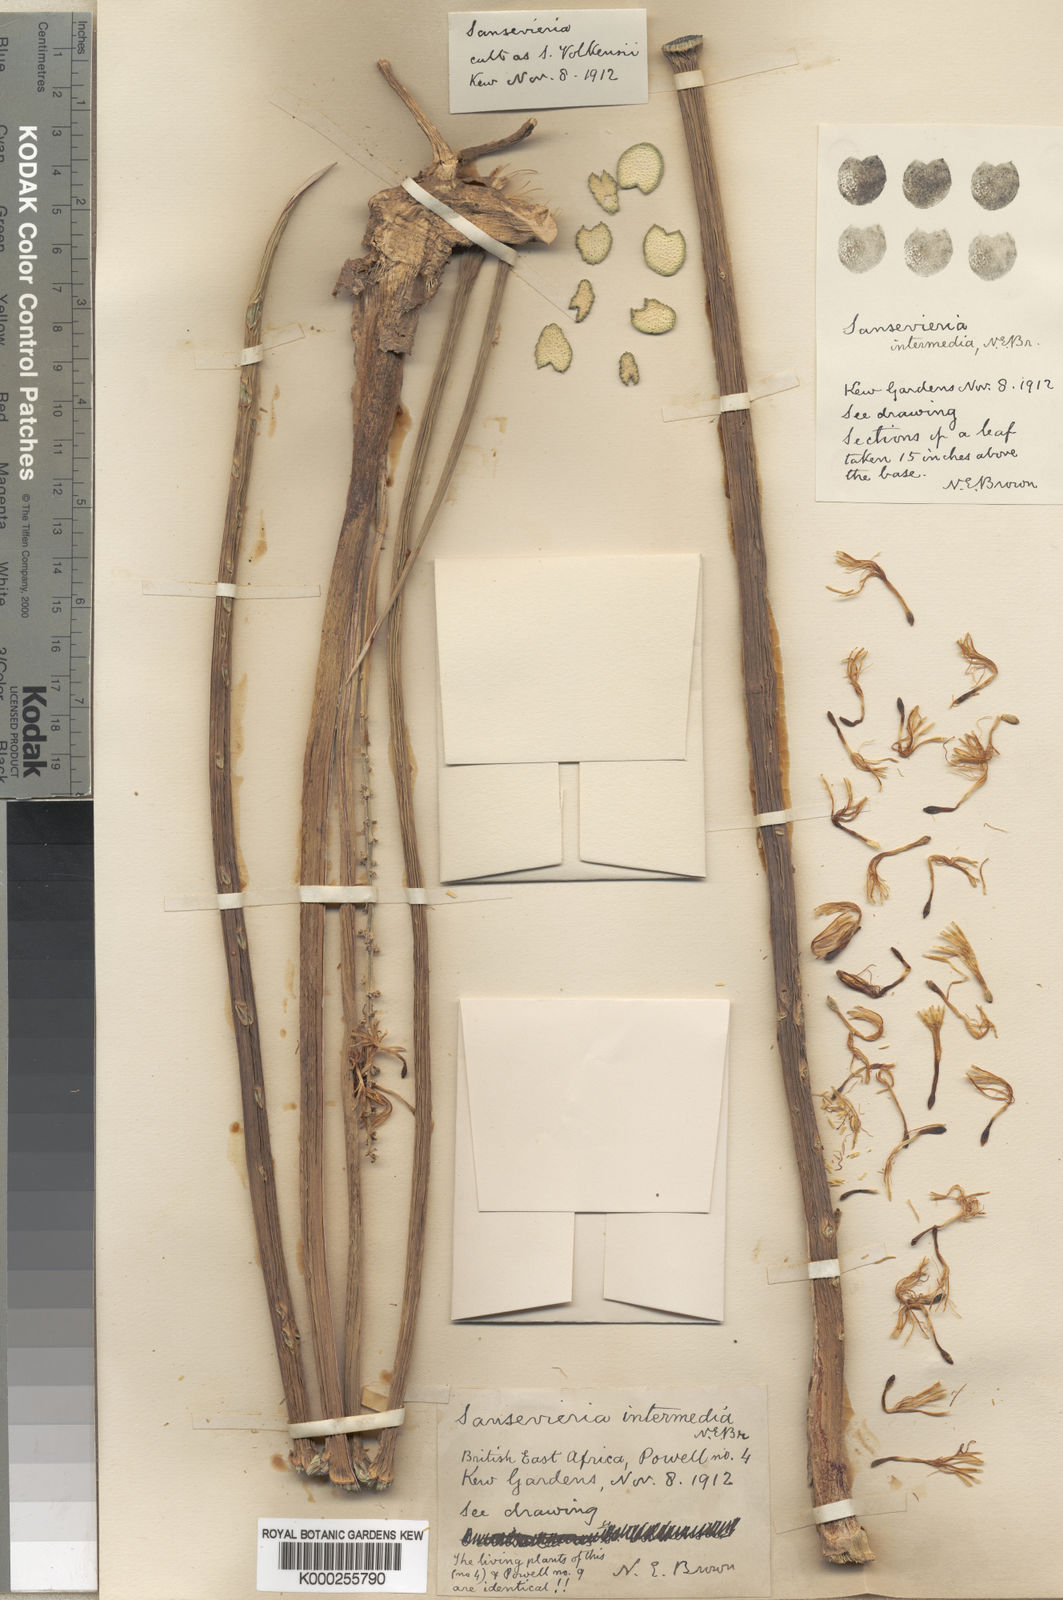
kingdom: Plantae
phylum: Tracheophyta
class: Liliopsida
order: Asparagales
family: Asparagaceae
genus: Dracaena
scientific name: Dracaena volkensii
